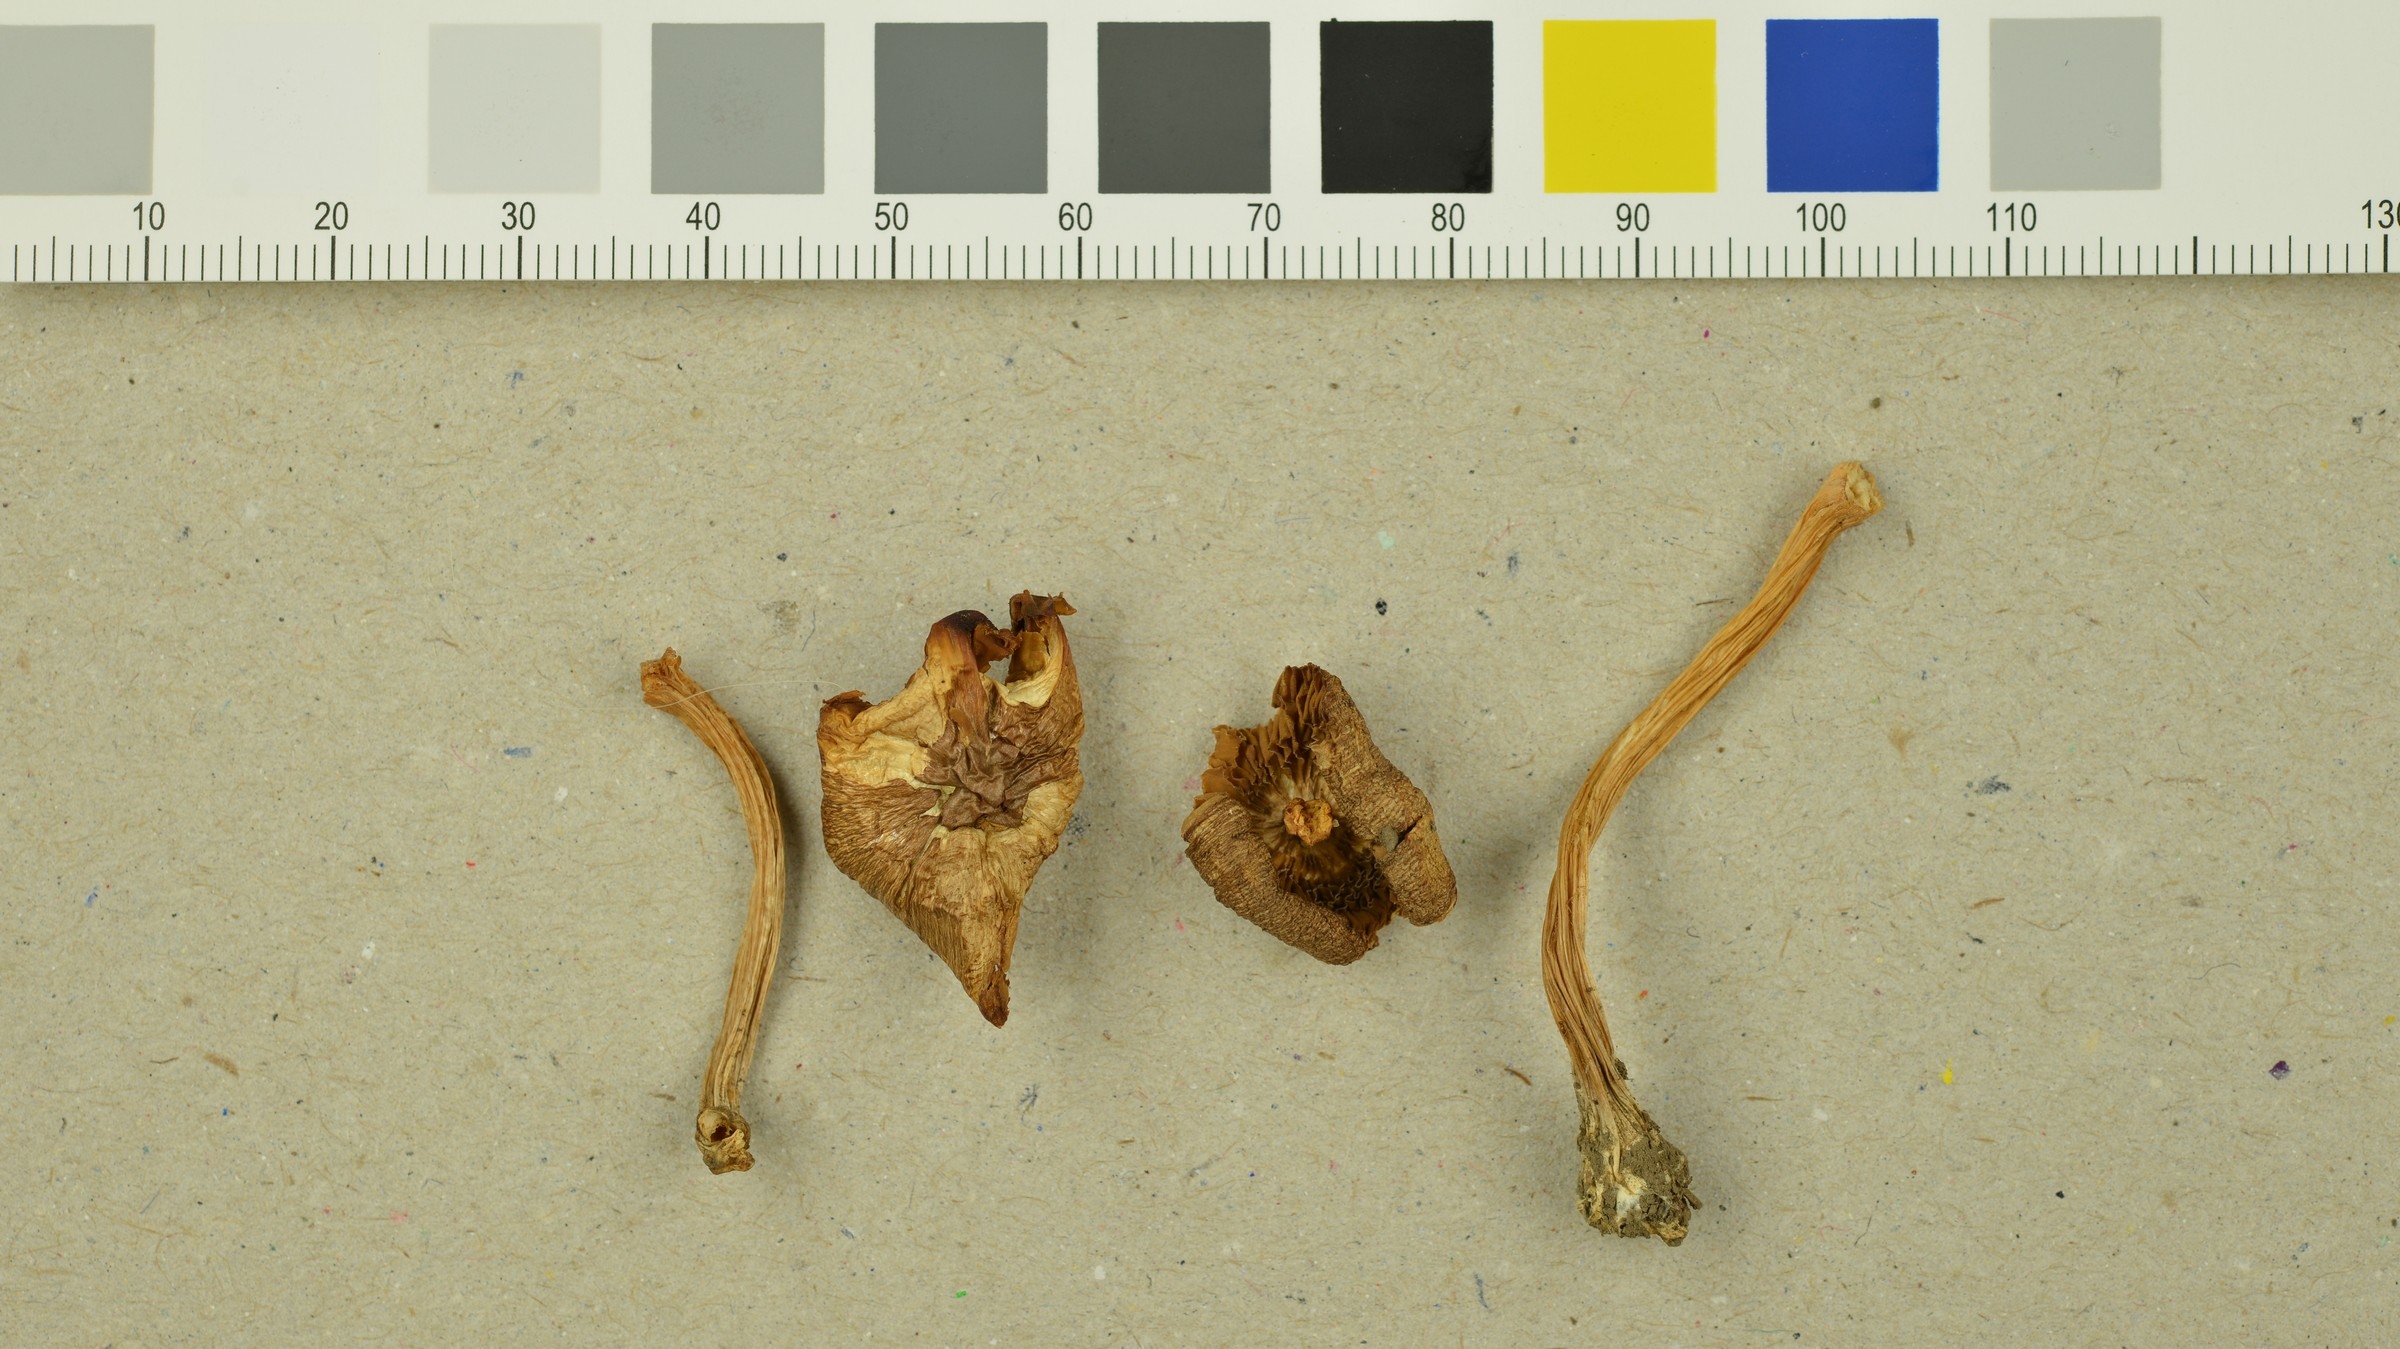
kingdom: Fungi
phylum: Basidiomycota
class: Agaricomycetes
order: Agaricales
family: Inocybaceae
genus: Inocybe
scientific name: Inocybe catalaunica
